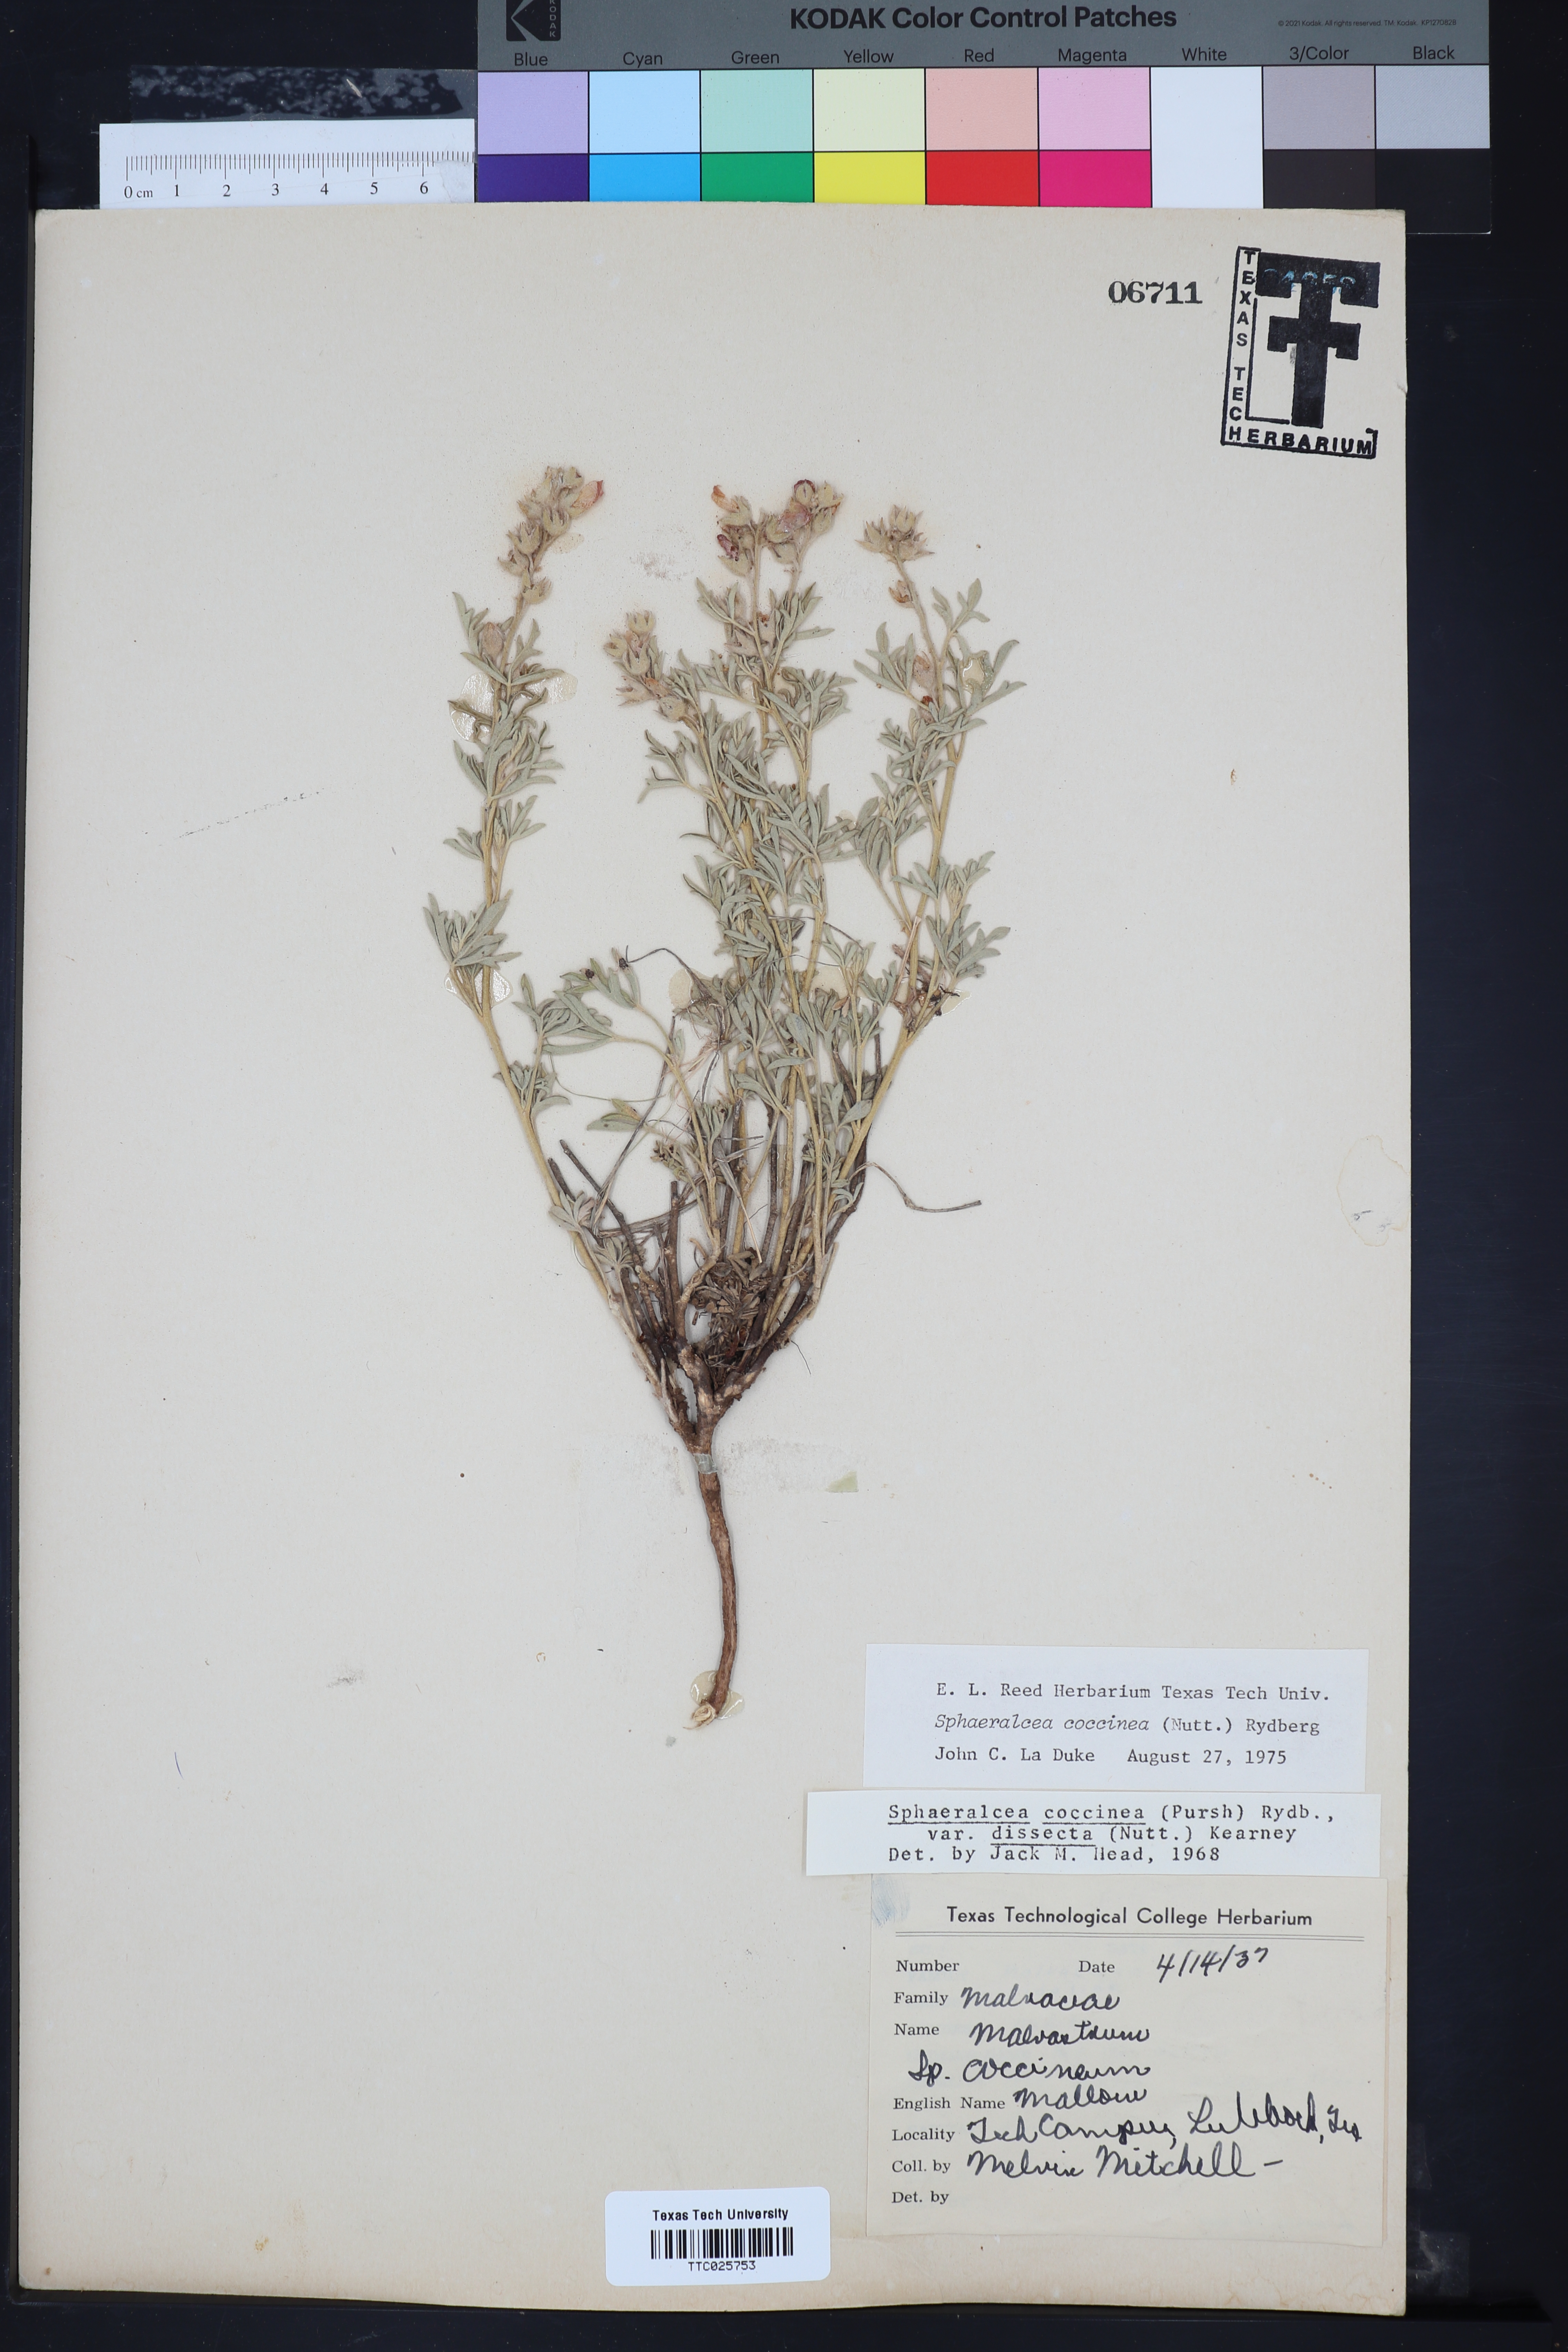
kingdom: Plantae
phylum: Tracheophyta
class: Magnoliopsida
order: Malvales
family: Malvaceae
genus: Sphaeralcea
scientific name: Sphaeralcea coccinea
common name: Moss-rose
